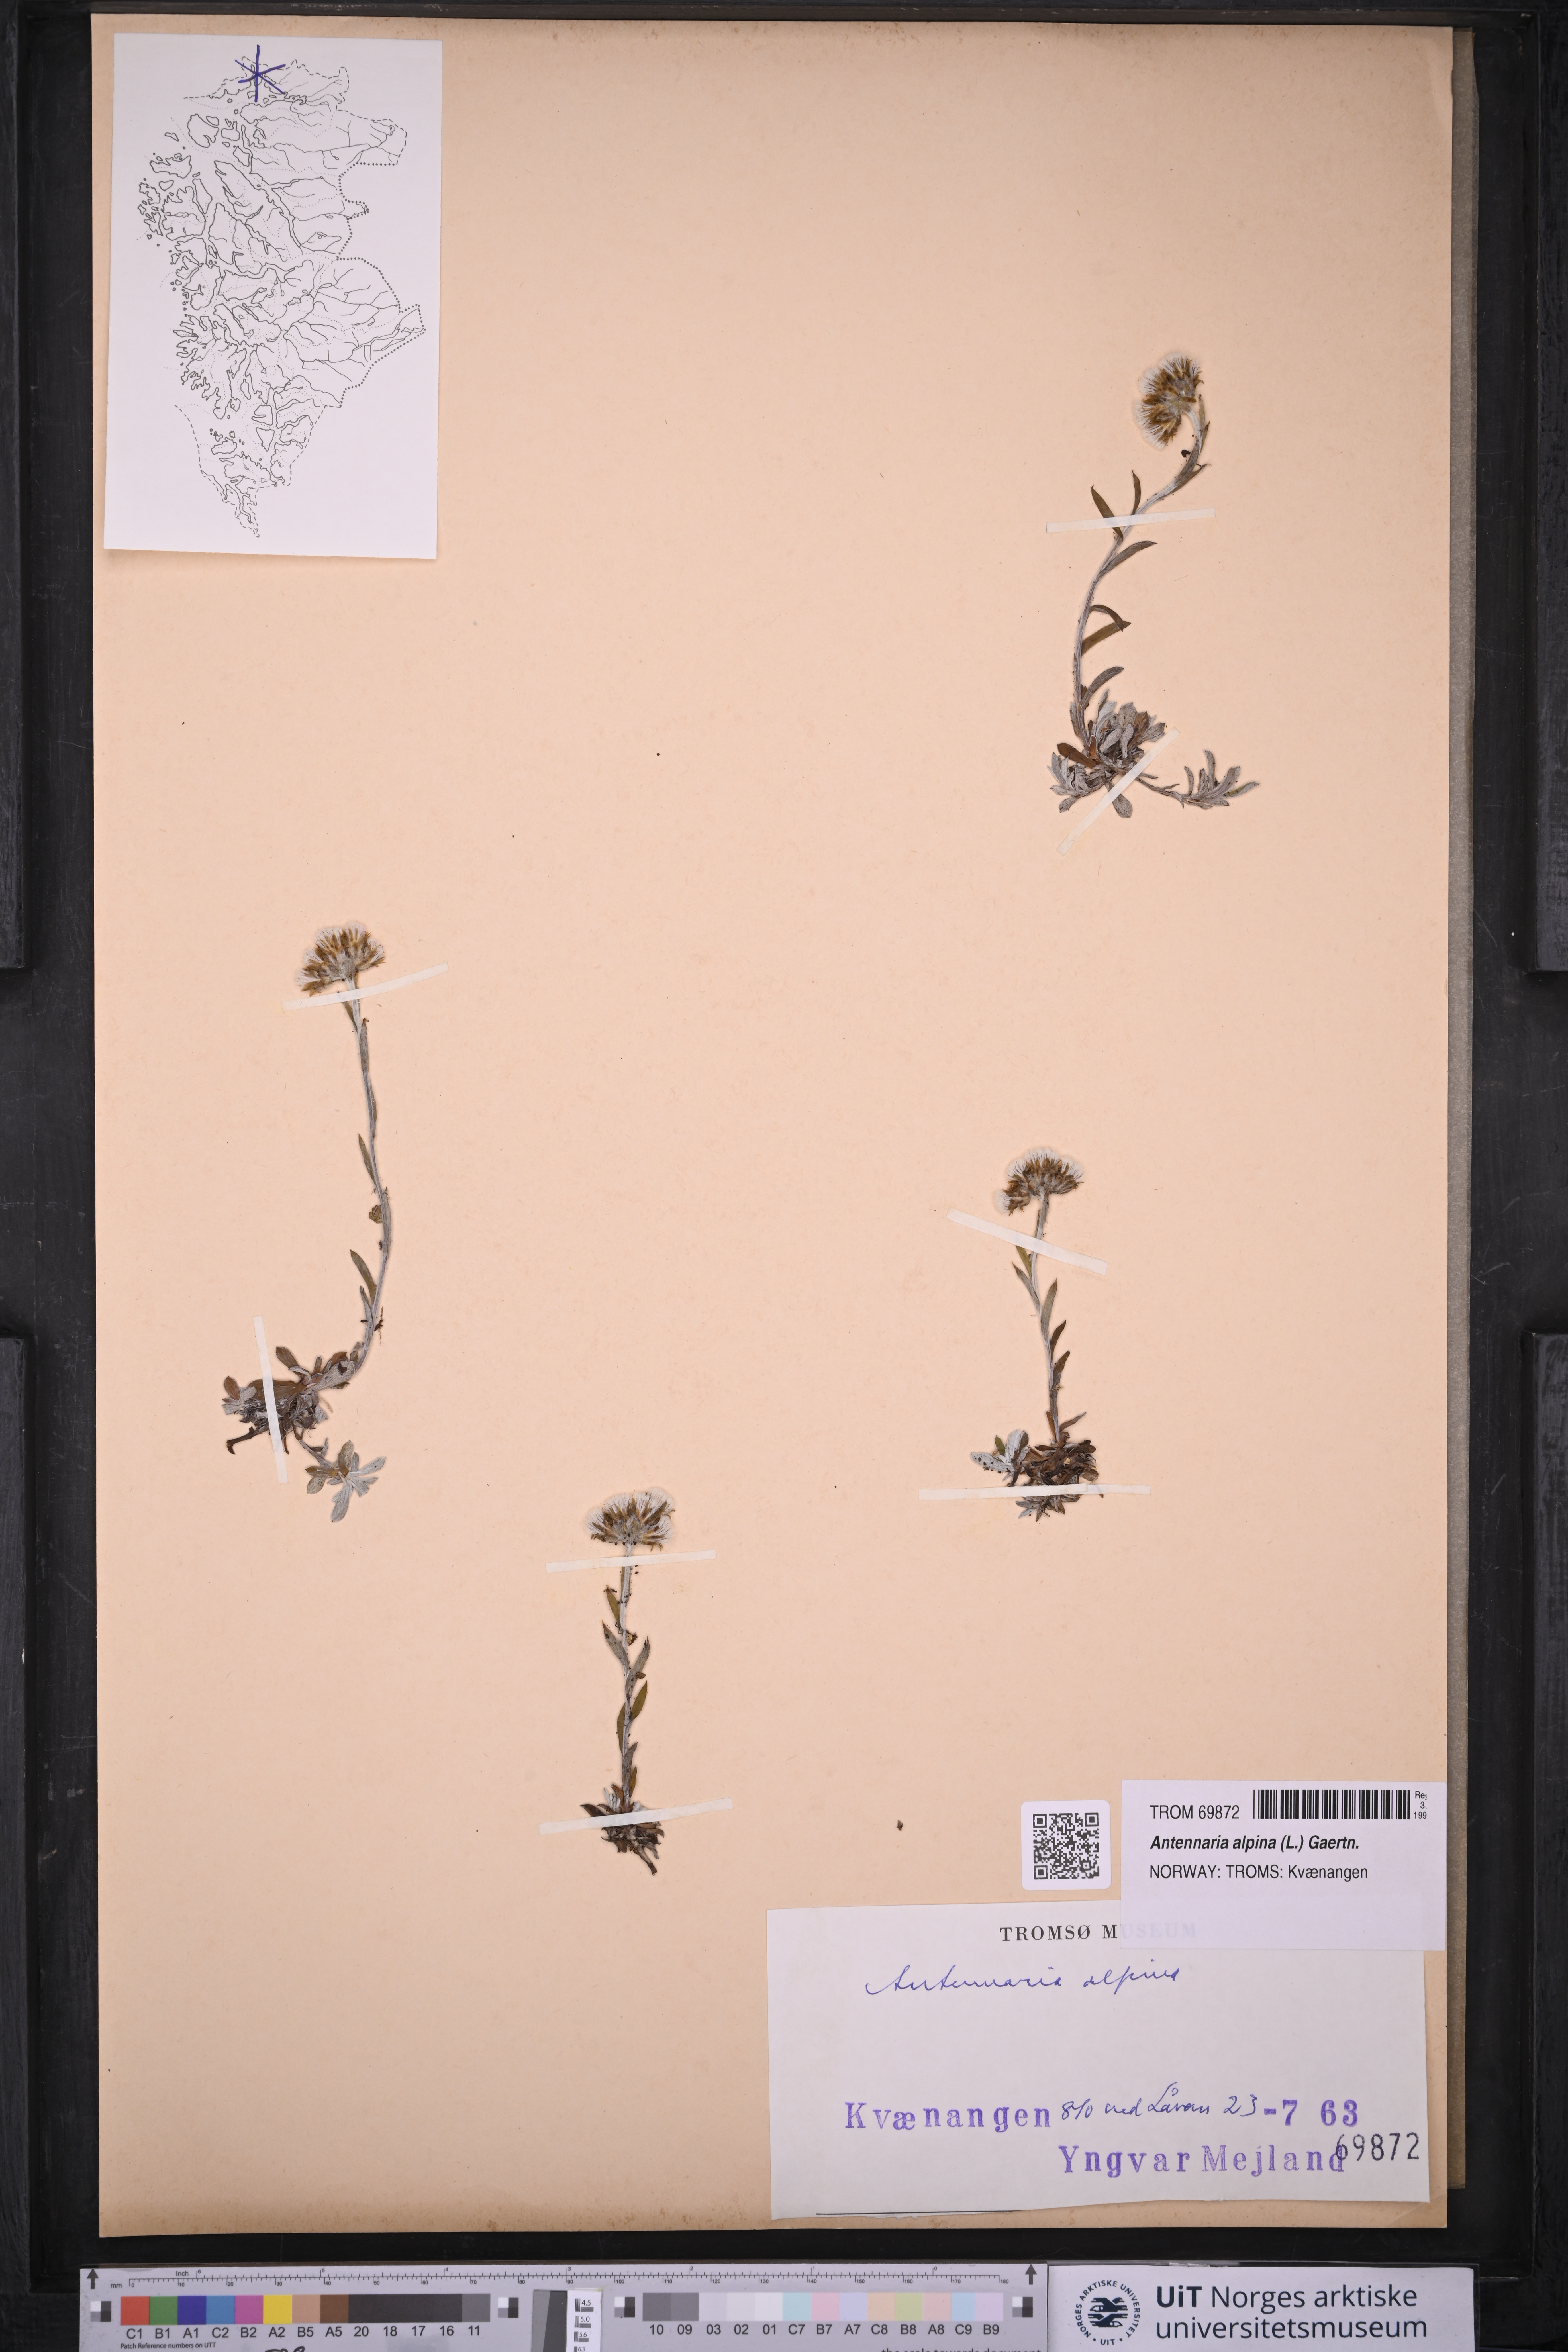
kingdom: Plantae
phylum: Tracheophyta
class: Magnoliopsida
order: Asterales
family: Asteraceae
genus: Antennaria
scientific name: Antennaria alpina
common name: Alpine pussytoes
